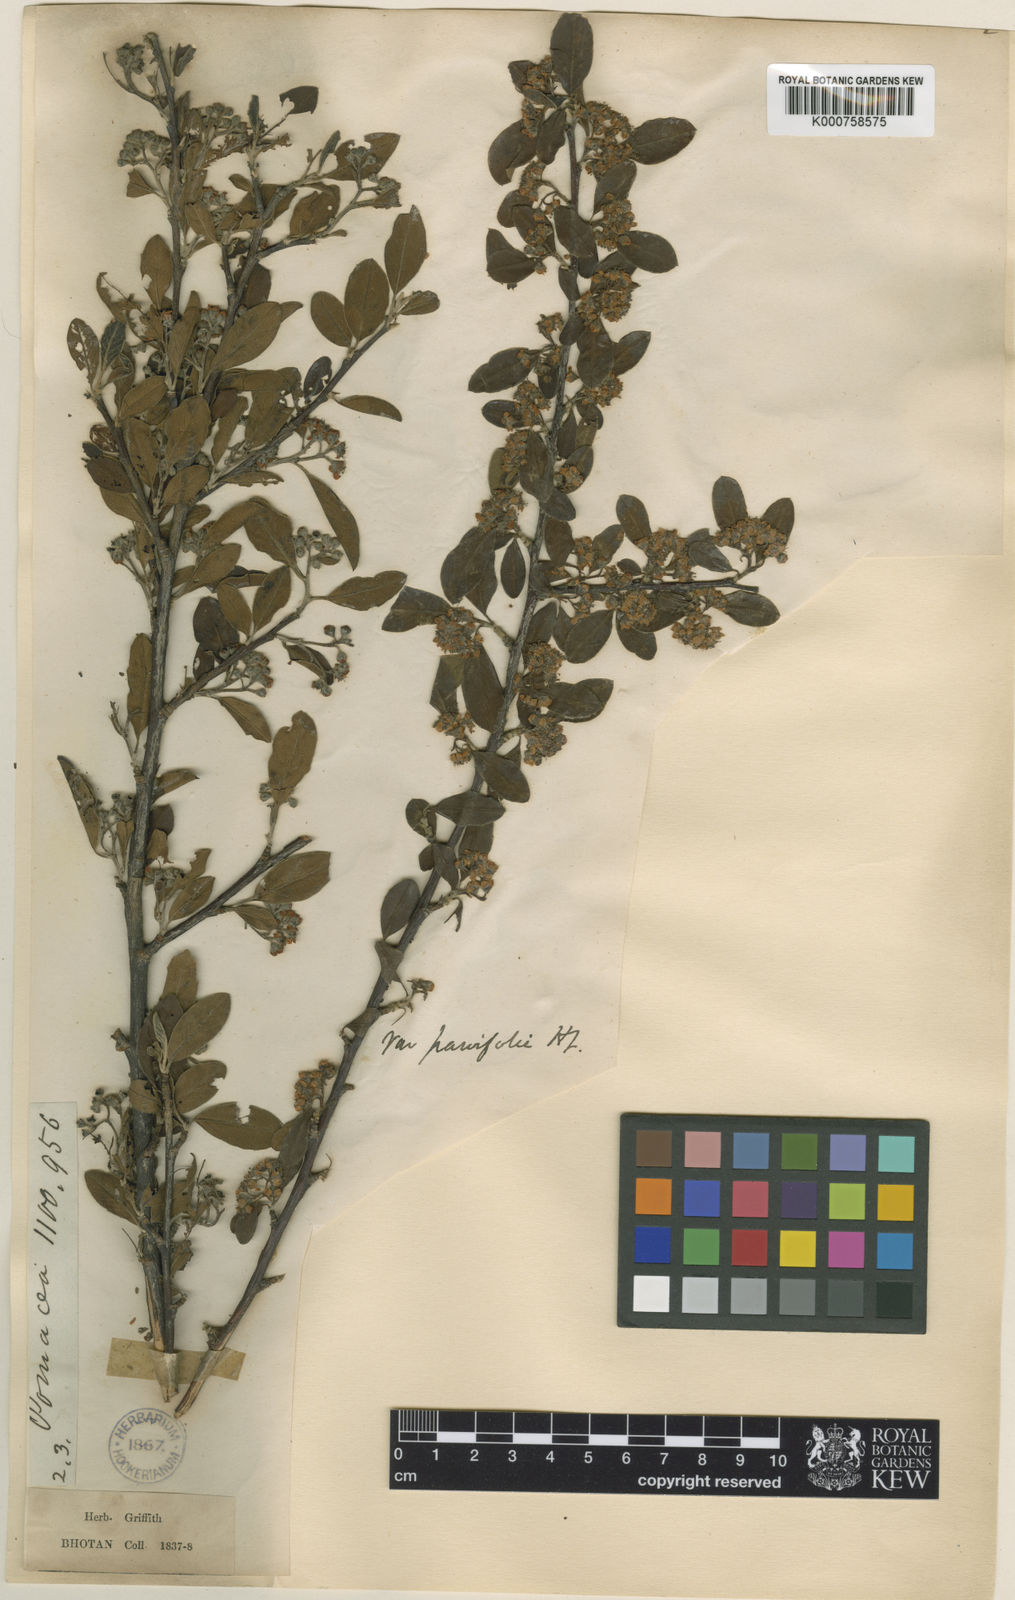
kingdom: Plantae
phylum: Tracheophyta
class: Magnoliopsida
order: Rosales
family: Rosaceae
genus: Cotoneaster
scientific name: Cotoneaster affinis
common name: Purpleberry cotoneaster
